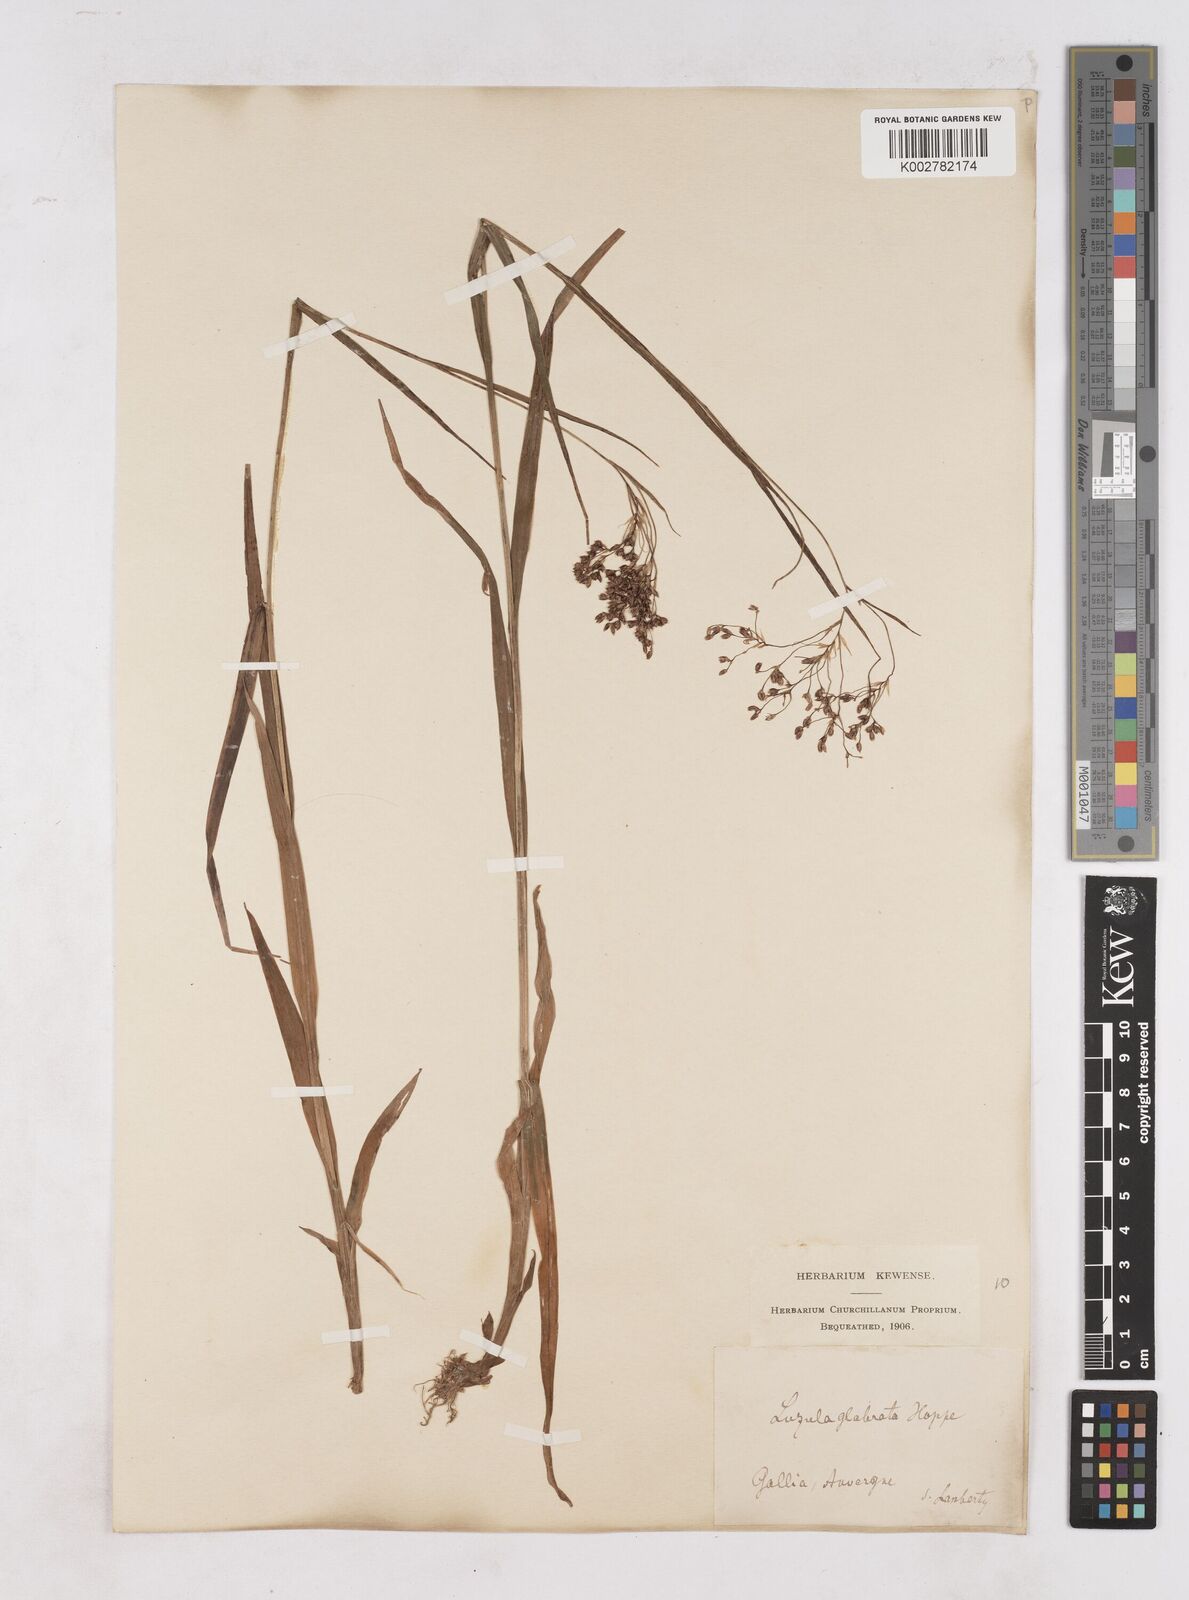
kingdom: Plantae
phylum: Tracheophyta
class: Liliopsida
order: Poales
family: Juncaceae
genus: Luzula
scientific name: Luzula glabrata
